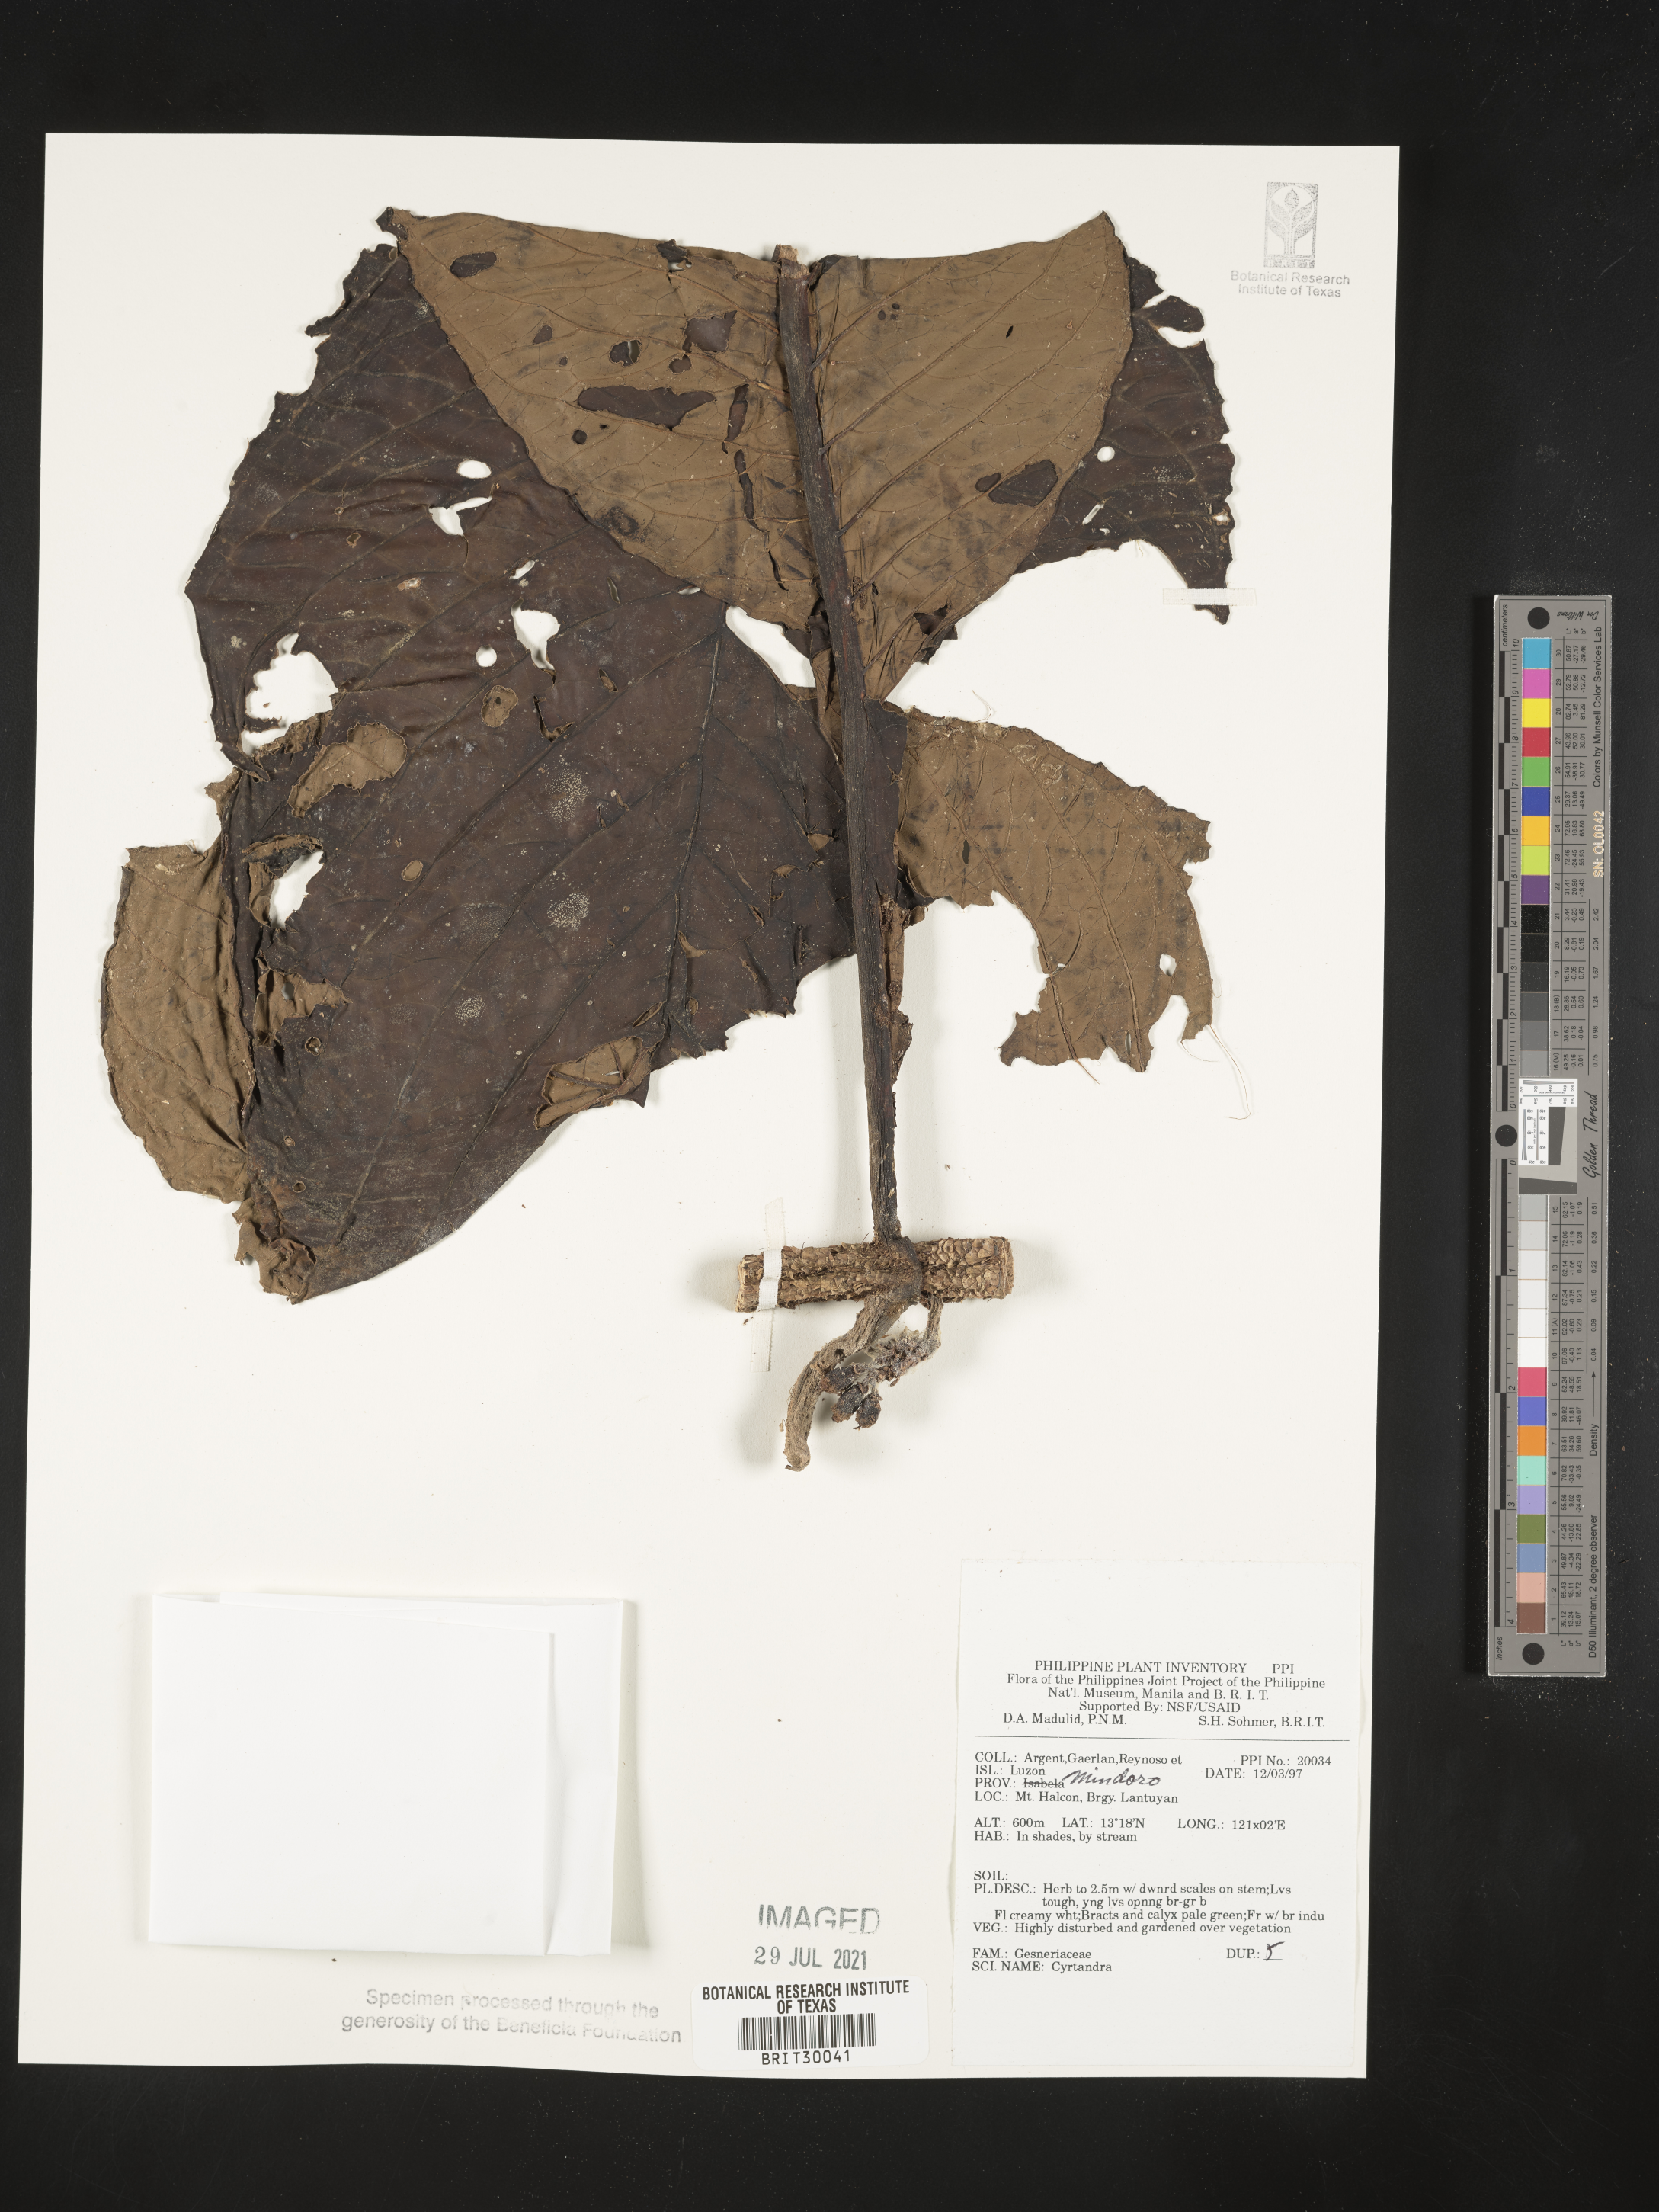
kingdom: Plantae
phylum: Tracheophyta
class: Magnoliopsida
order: Lamiales
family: Gesneriaceae
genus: Cyrtandra
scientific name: Cyrtandra
